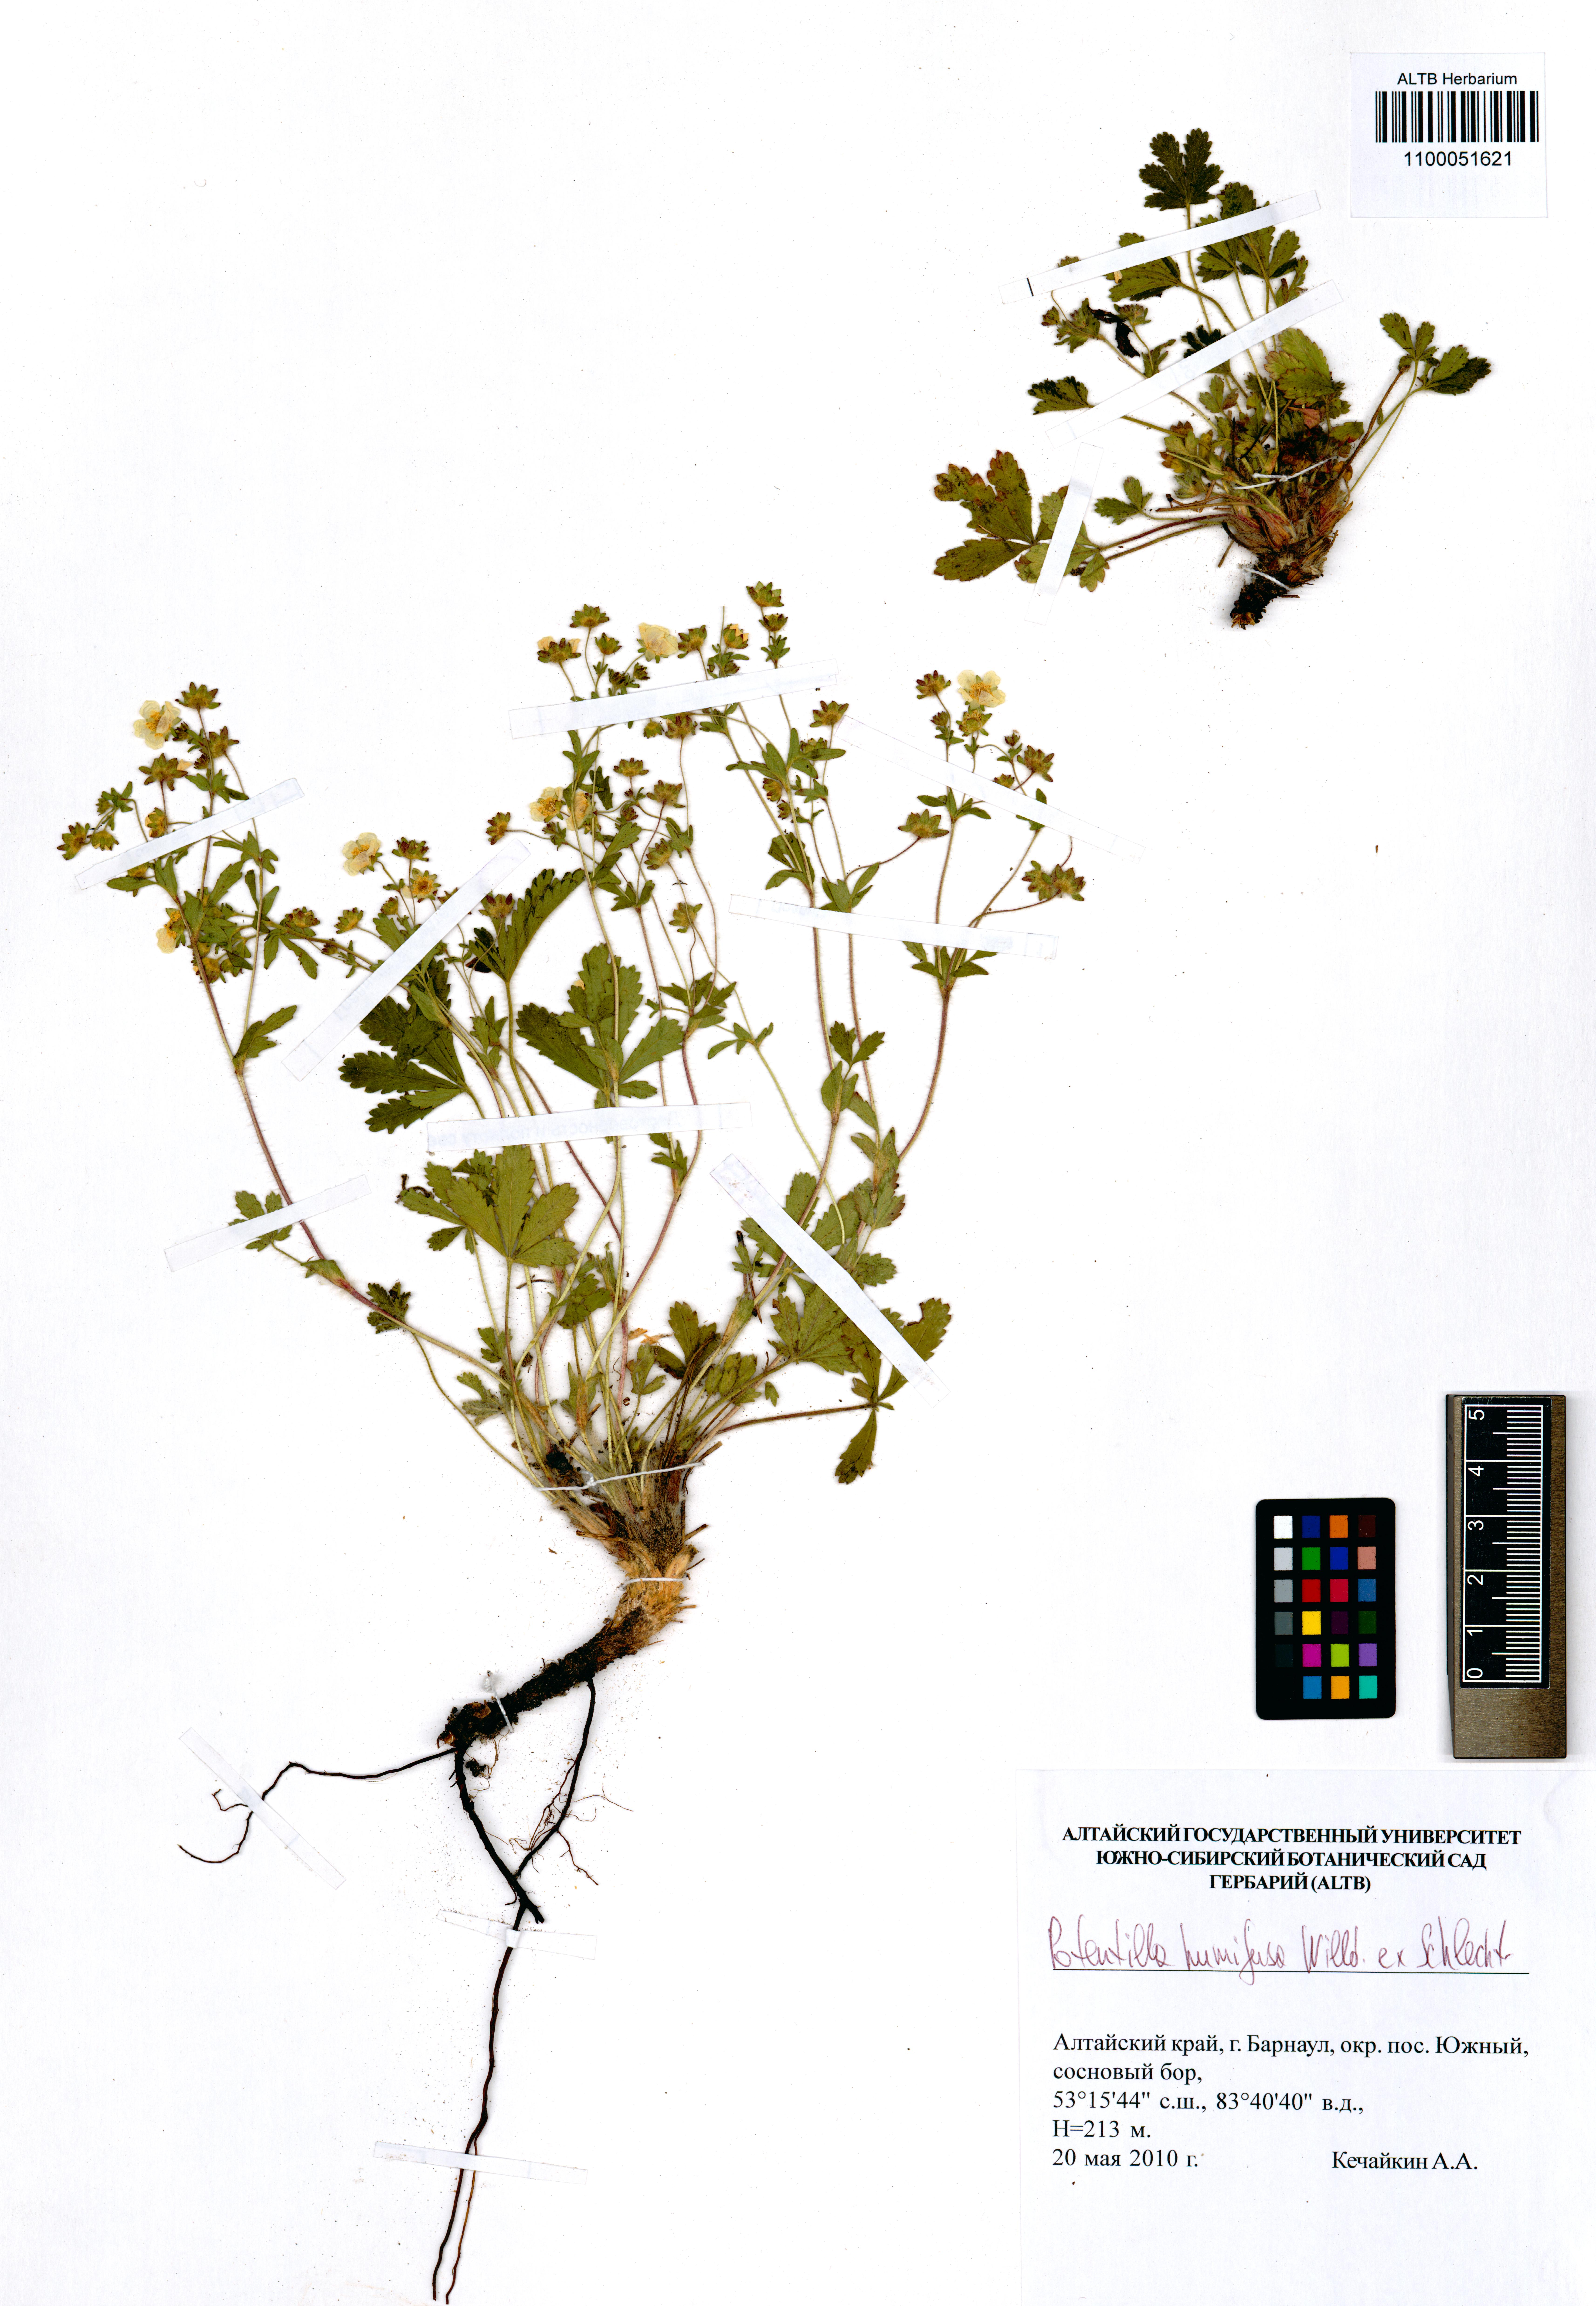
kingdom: Plantae
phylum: Tracheophyta
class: Magnoliopsida
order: Rosales
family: Rosaceae
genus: Potentilla
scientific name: Potentilla humifusa
